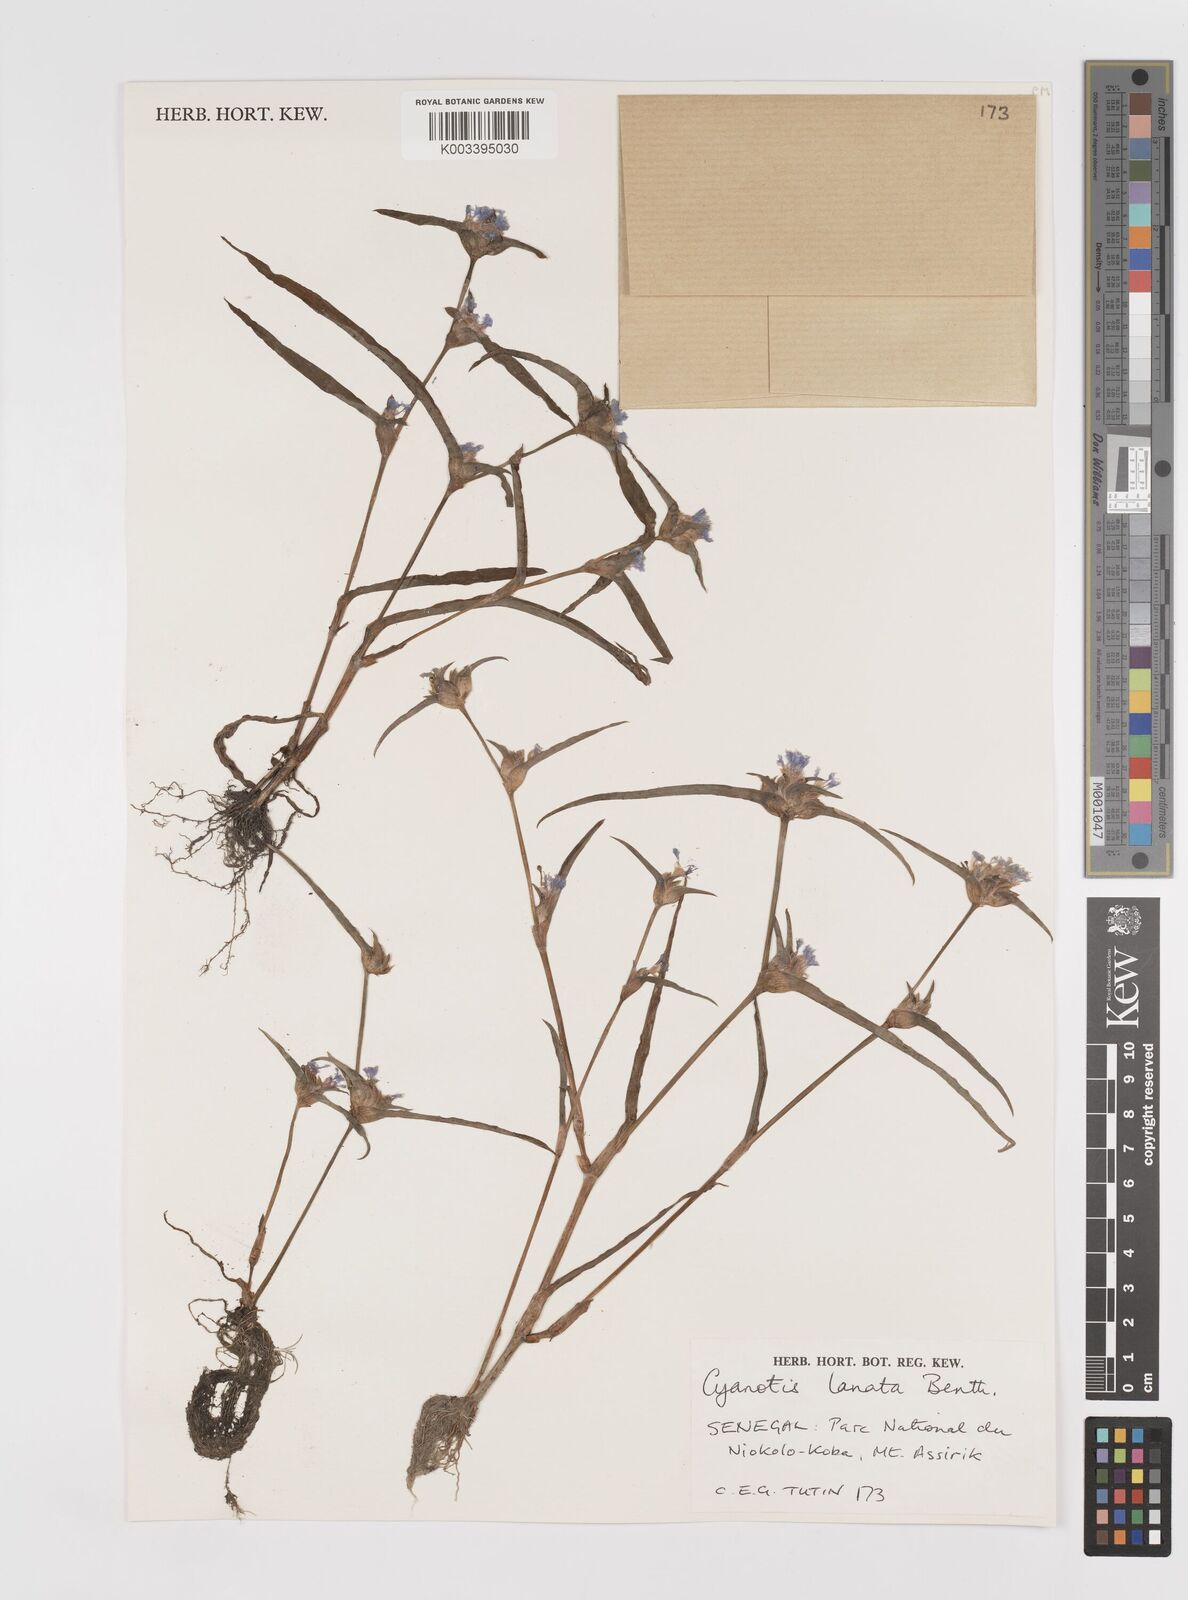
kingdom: Plantae
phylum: Tracheophyta
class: Liliopsida
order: Commelinales
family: Commelinaceae
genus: Cyanotis
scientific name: Cyanotis lanata
